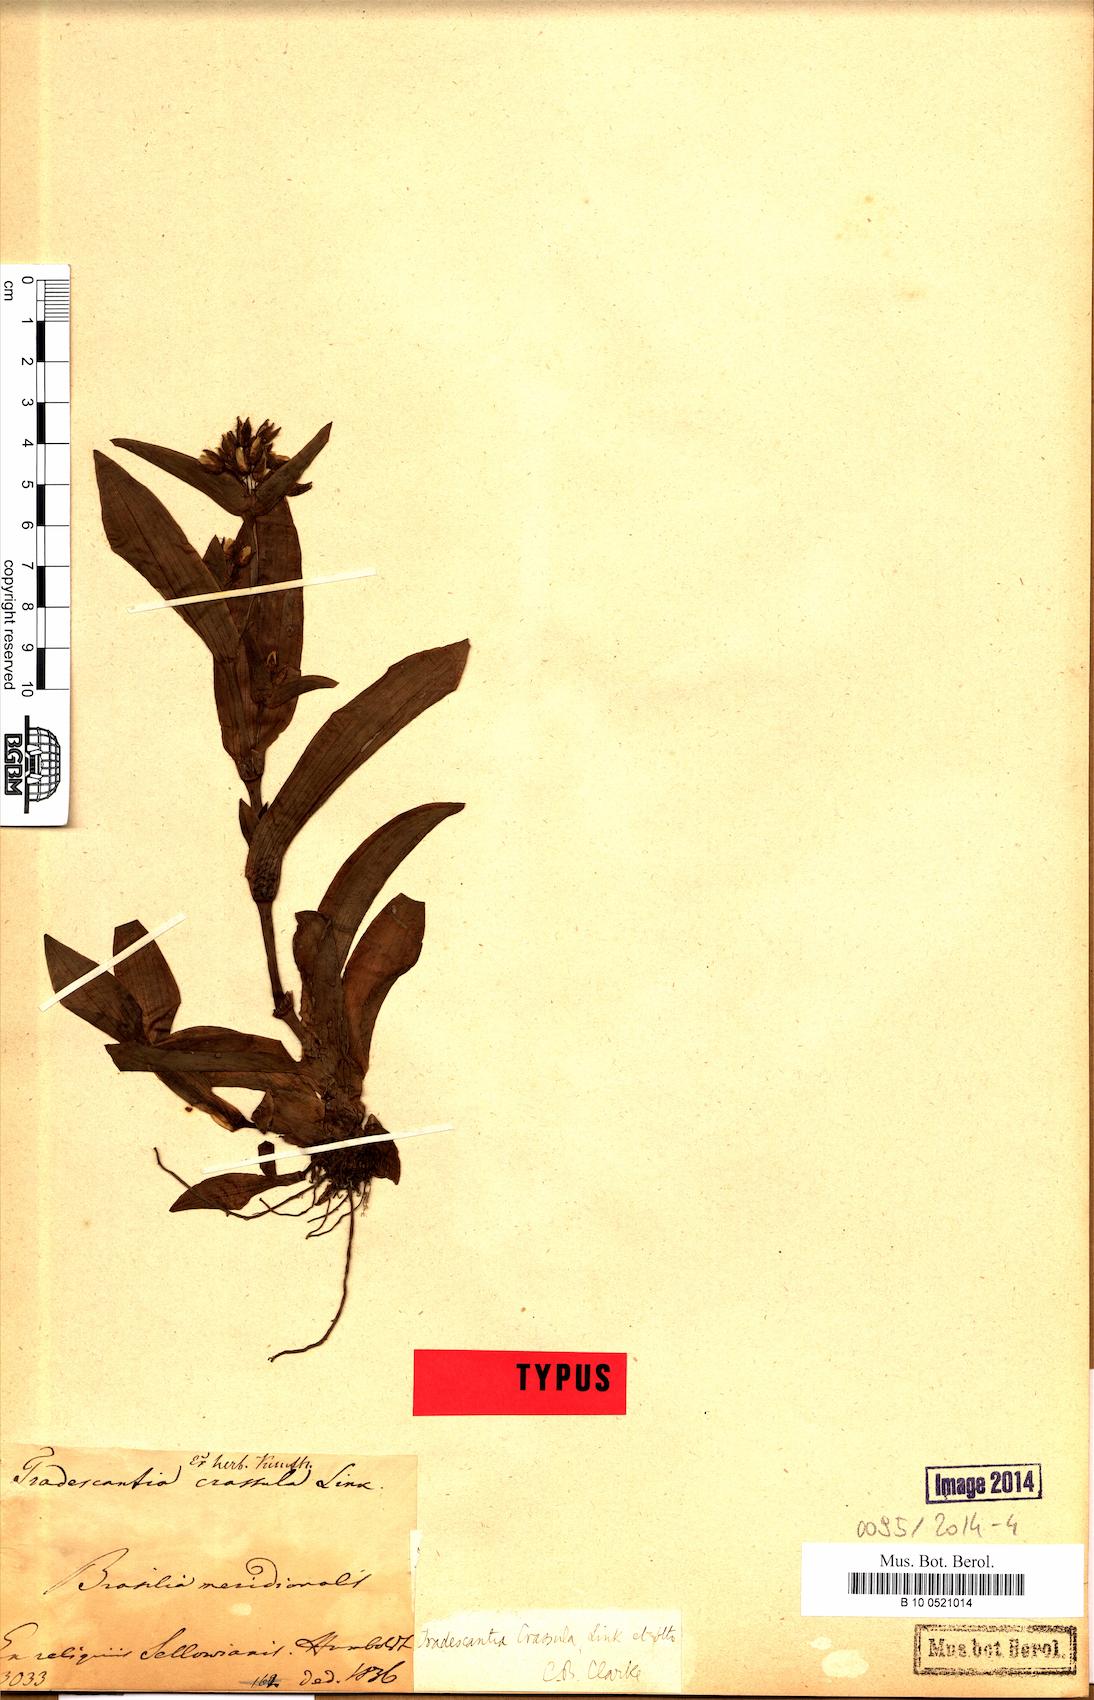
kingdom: Plantae
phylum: Tracheophyta
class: Liliopsida
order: Commelinales
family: Commelinaceae
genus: Tradescantia
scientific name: Tradescantia crassula
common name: Succulent spiderwort
